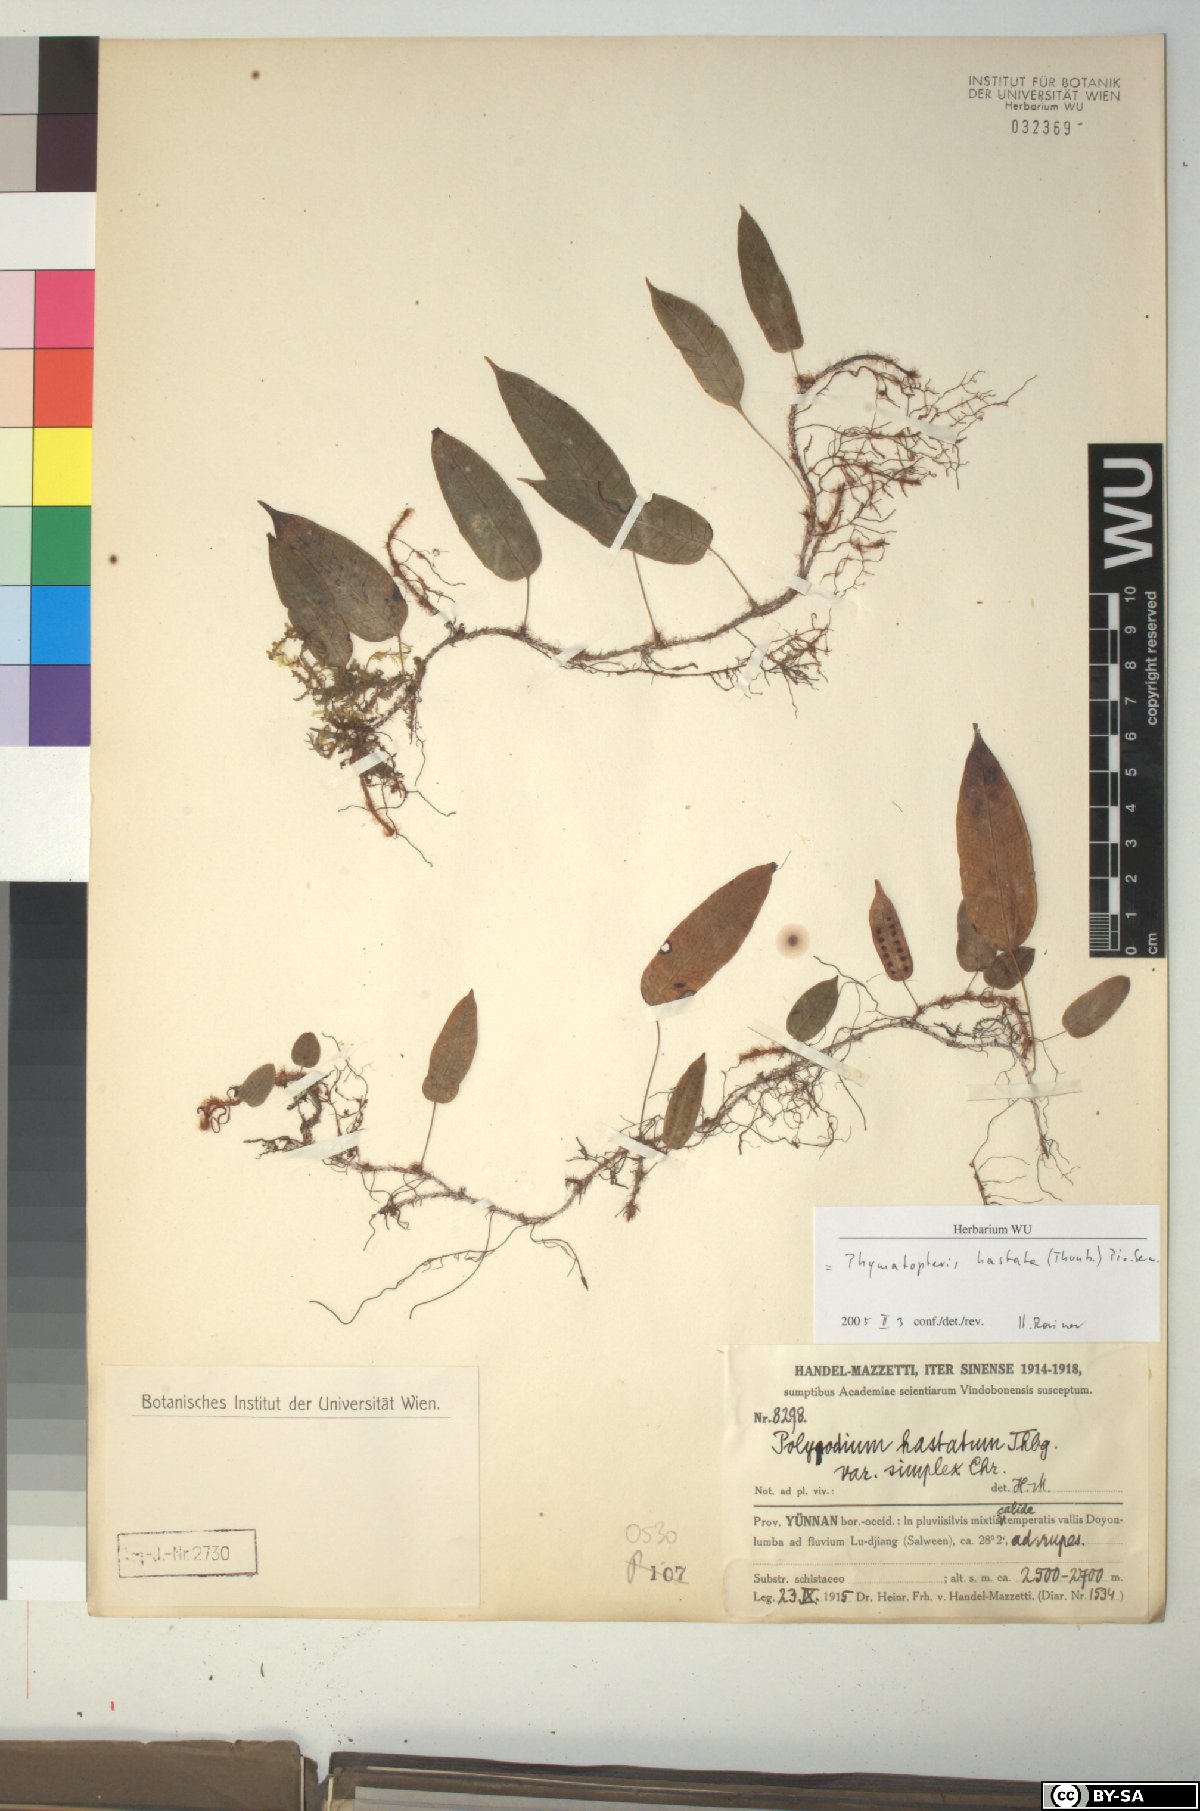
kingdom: Plantae
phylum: Tracheophyta
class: Polypodiopsida
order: Polypodiales
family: Polypodiaceae
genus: Selliguea
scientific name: Selliguea hastata
